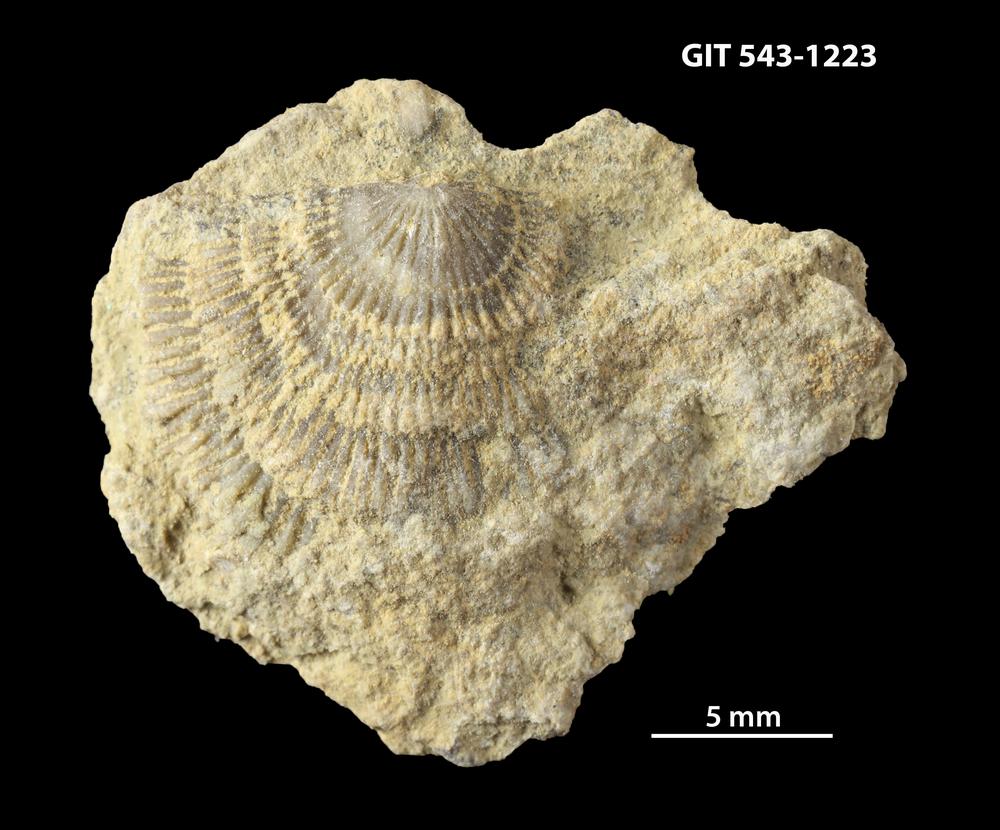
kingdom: Animalia
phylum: Brachiopoda
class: Rhynchonellata
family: Clitambonitidae
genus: Clitambonites
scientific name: Clitambonites Orthisina schmidti
